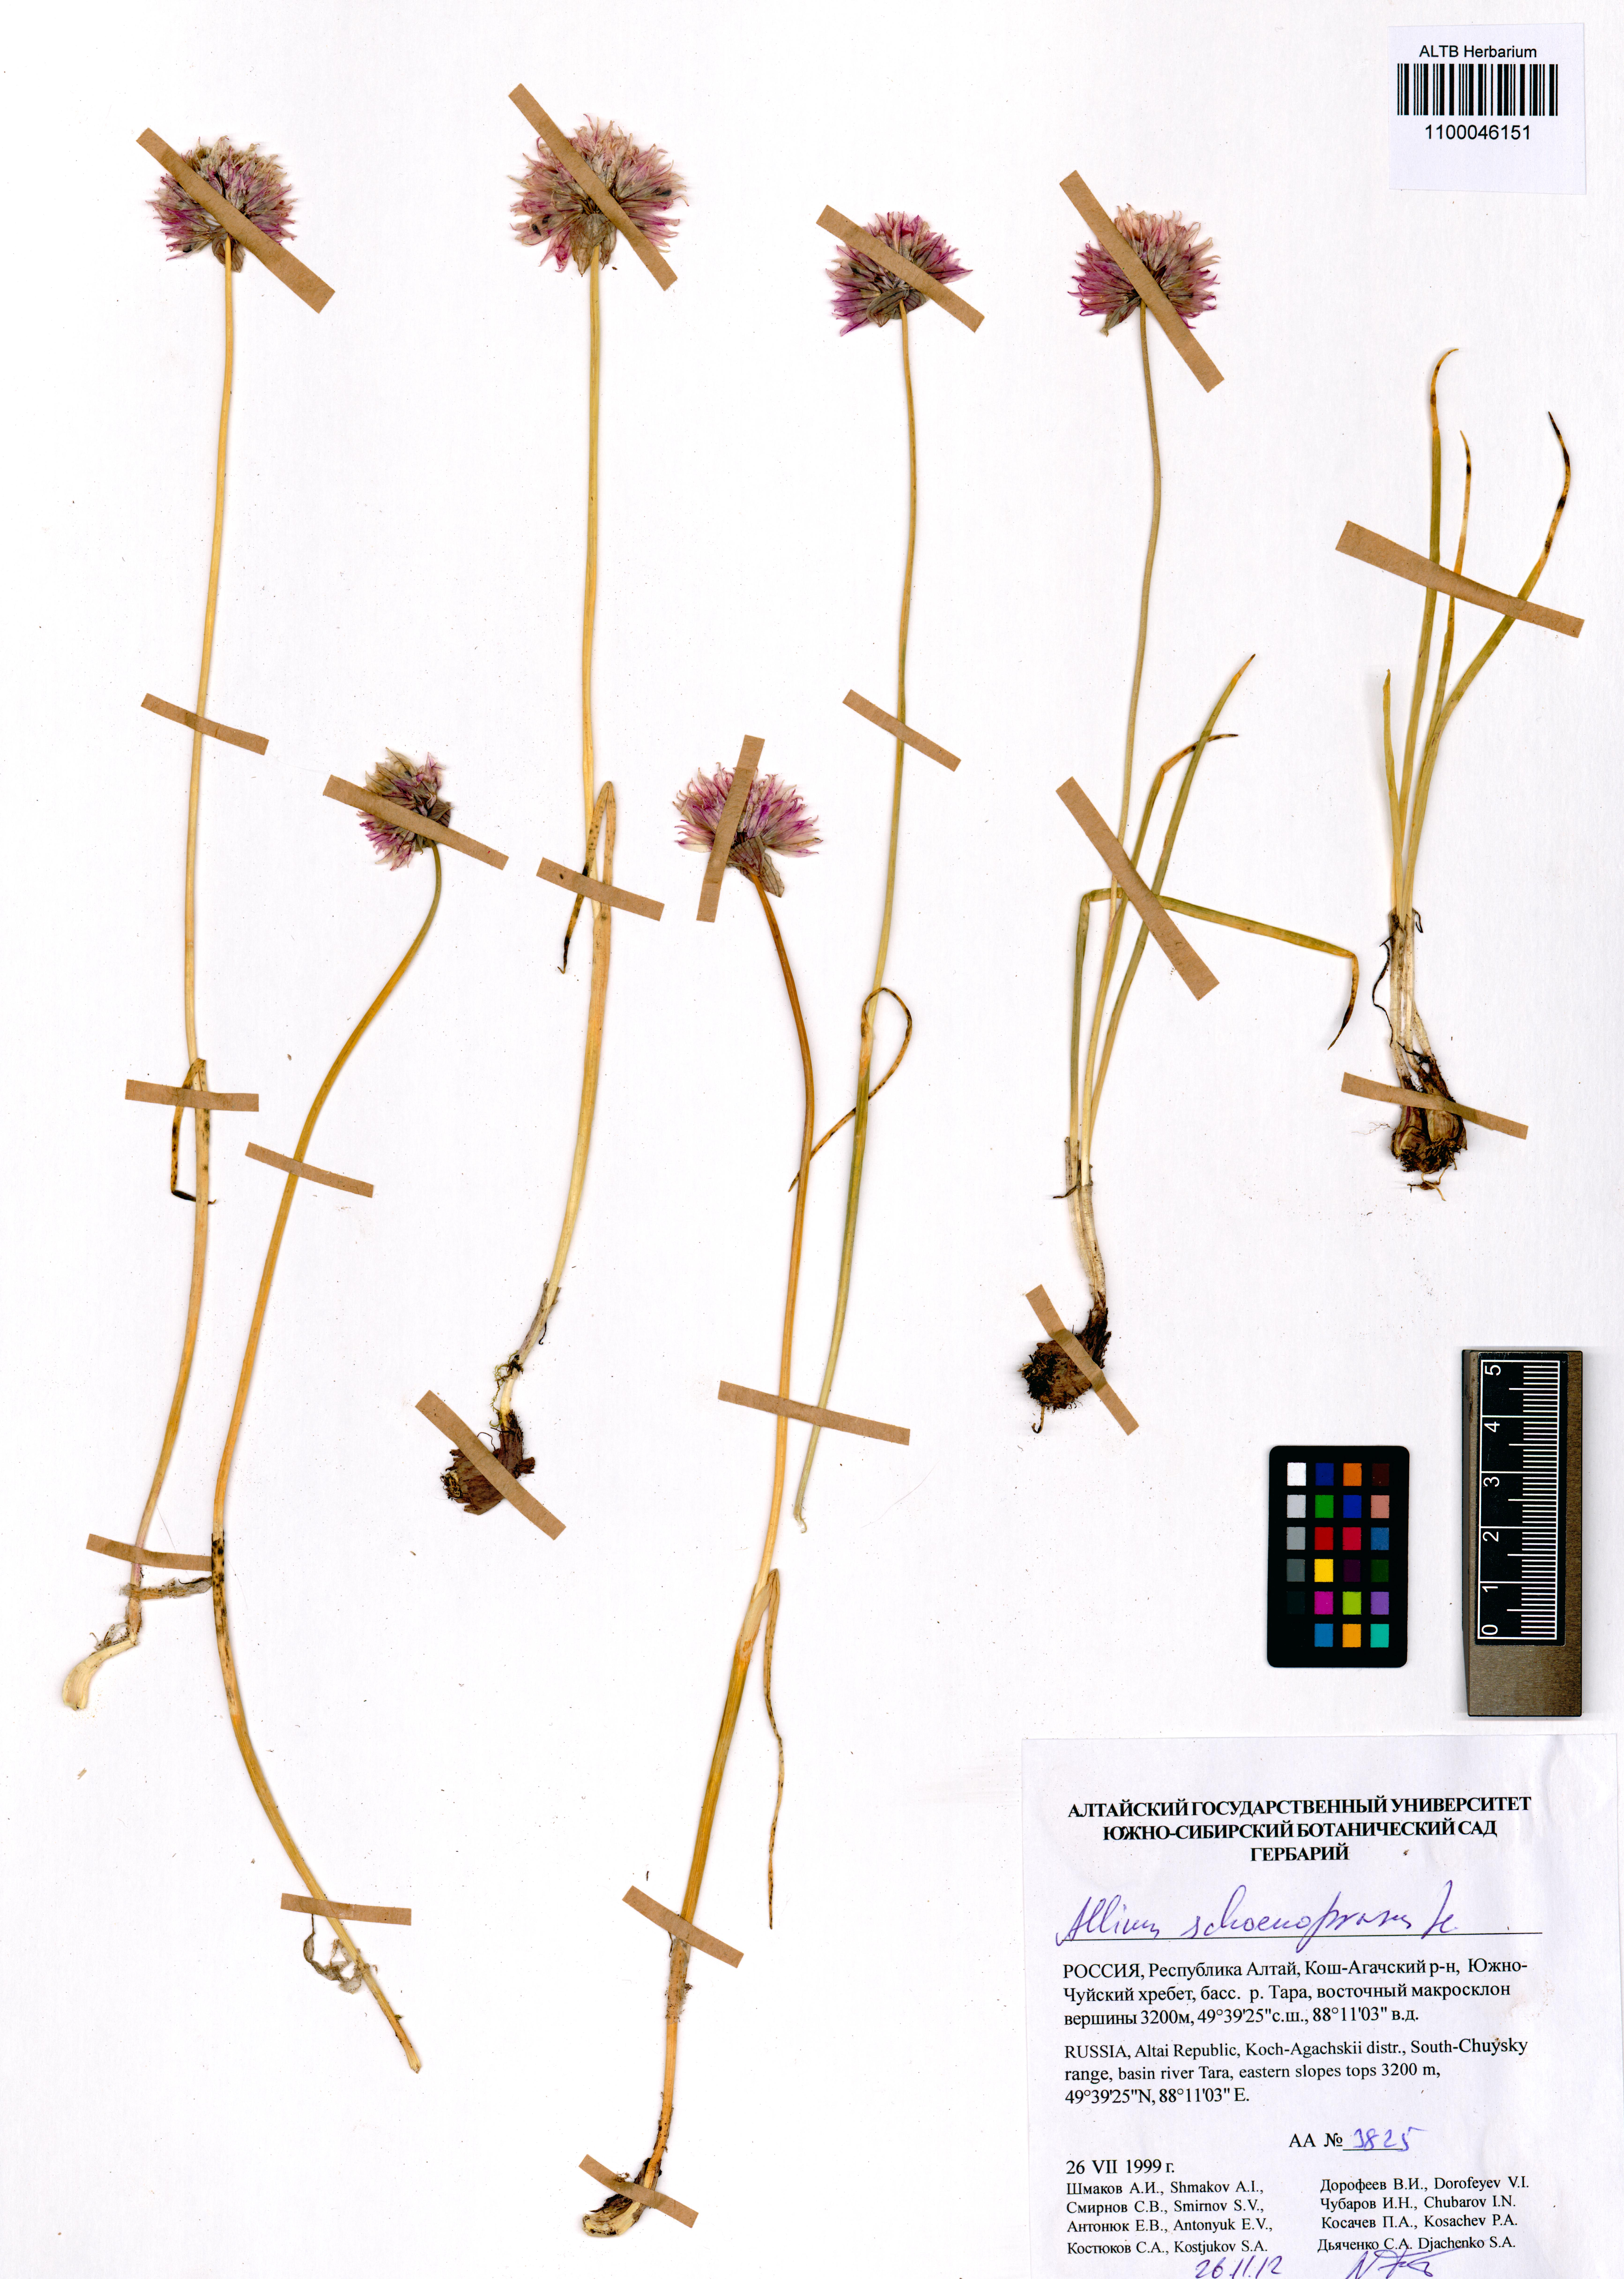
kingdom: Plantae
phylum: Tracheophyta
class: Liliopsida
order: Asparagales
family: Amaryllidaceae
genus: Allium
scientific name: Allium schoenoprasum
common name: Chives
